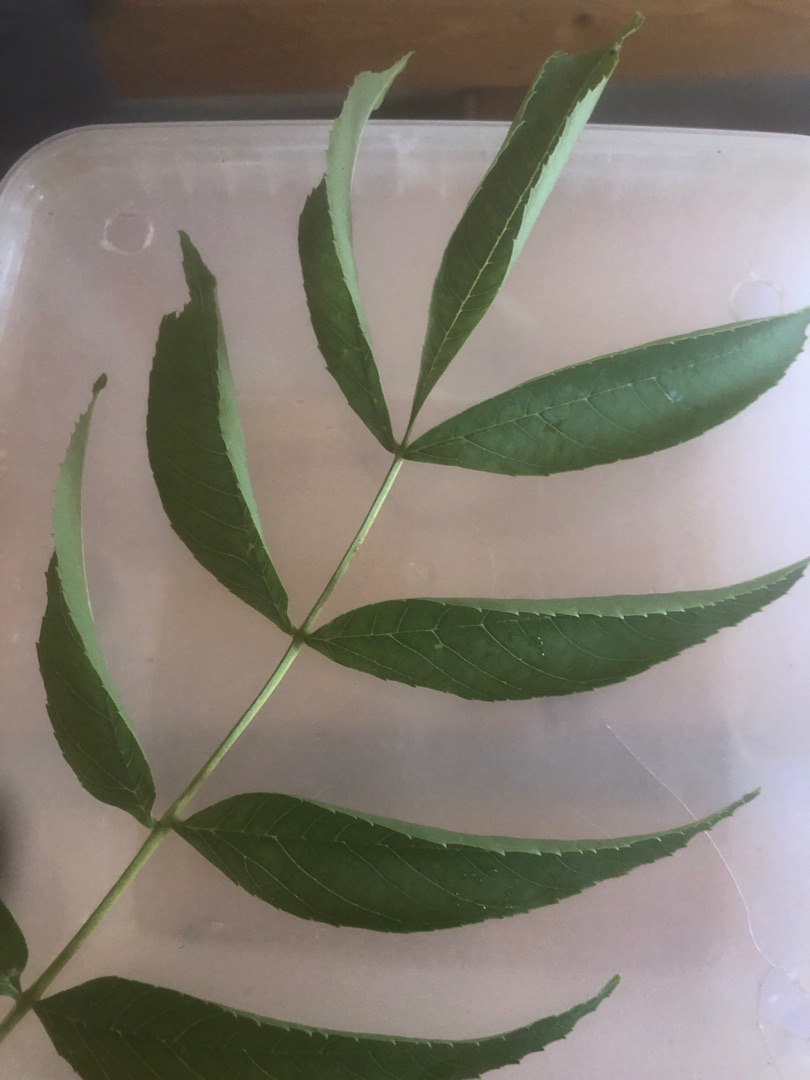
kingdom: Plantae
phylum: Tracheophyta
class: Magnoliopsida
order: Lamiales
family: Oleaceae
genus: Fraxinus
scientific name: Fraxinus excelsior
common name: Ask
